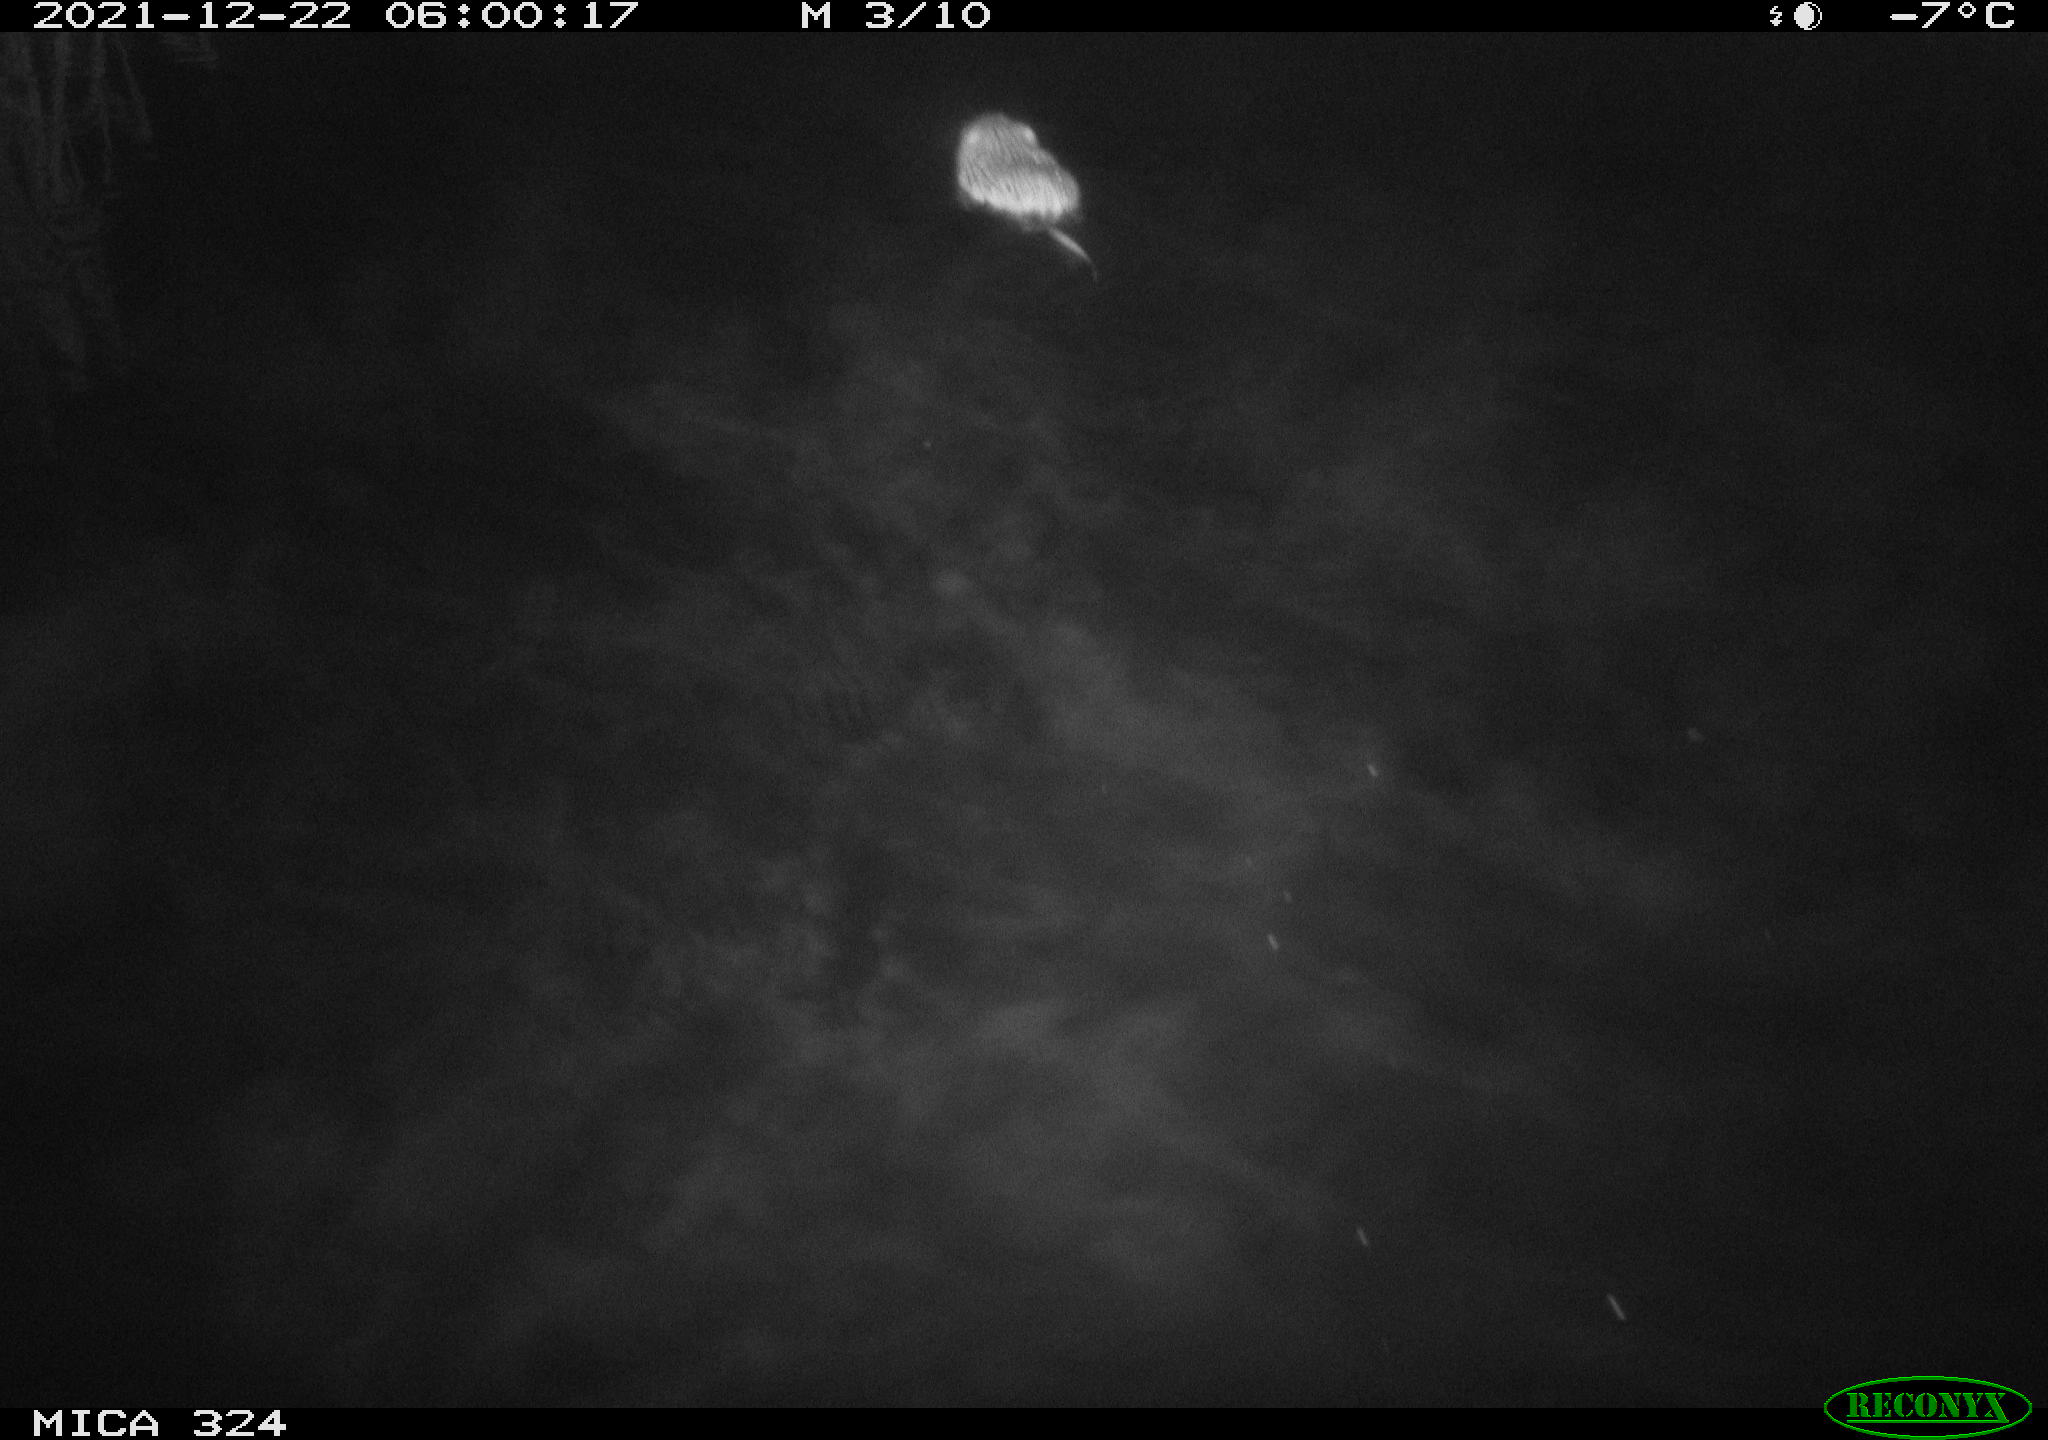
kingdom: Animalia
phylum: Chordata
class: Mammalia
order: Rodentia
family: Cricetidae
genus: Ondatra
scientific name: Ondatra zibethicus
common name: Muskrat
